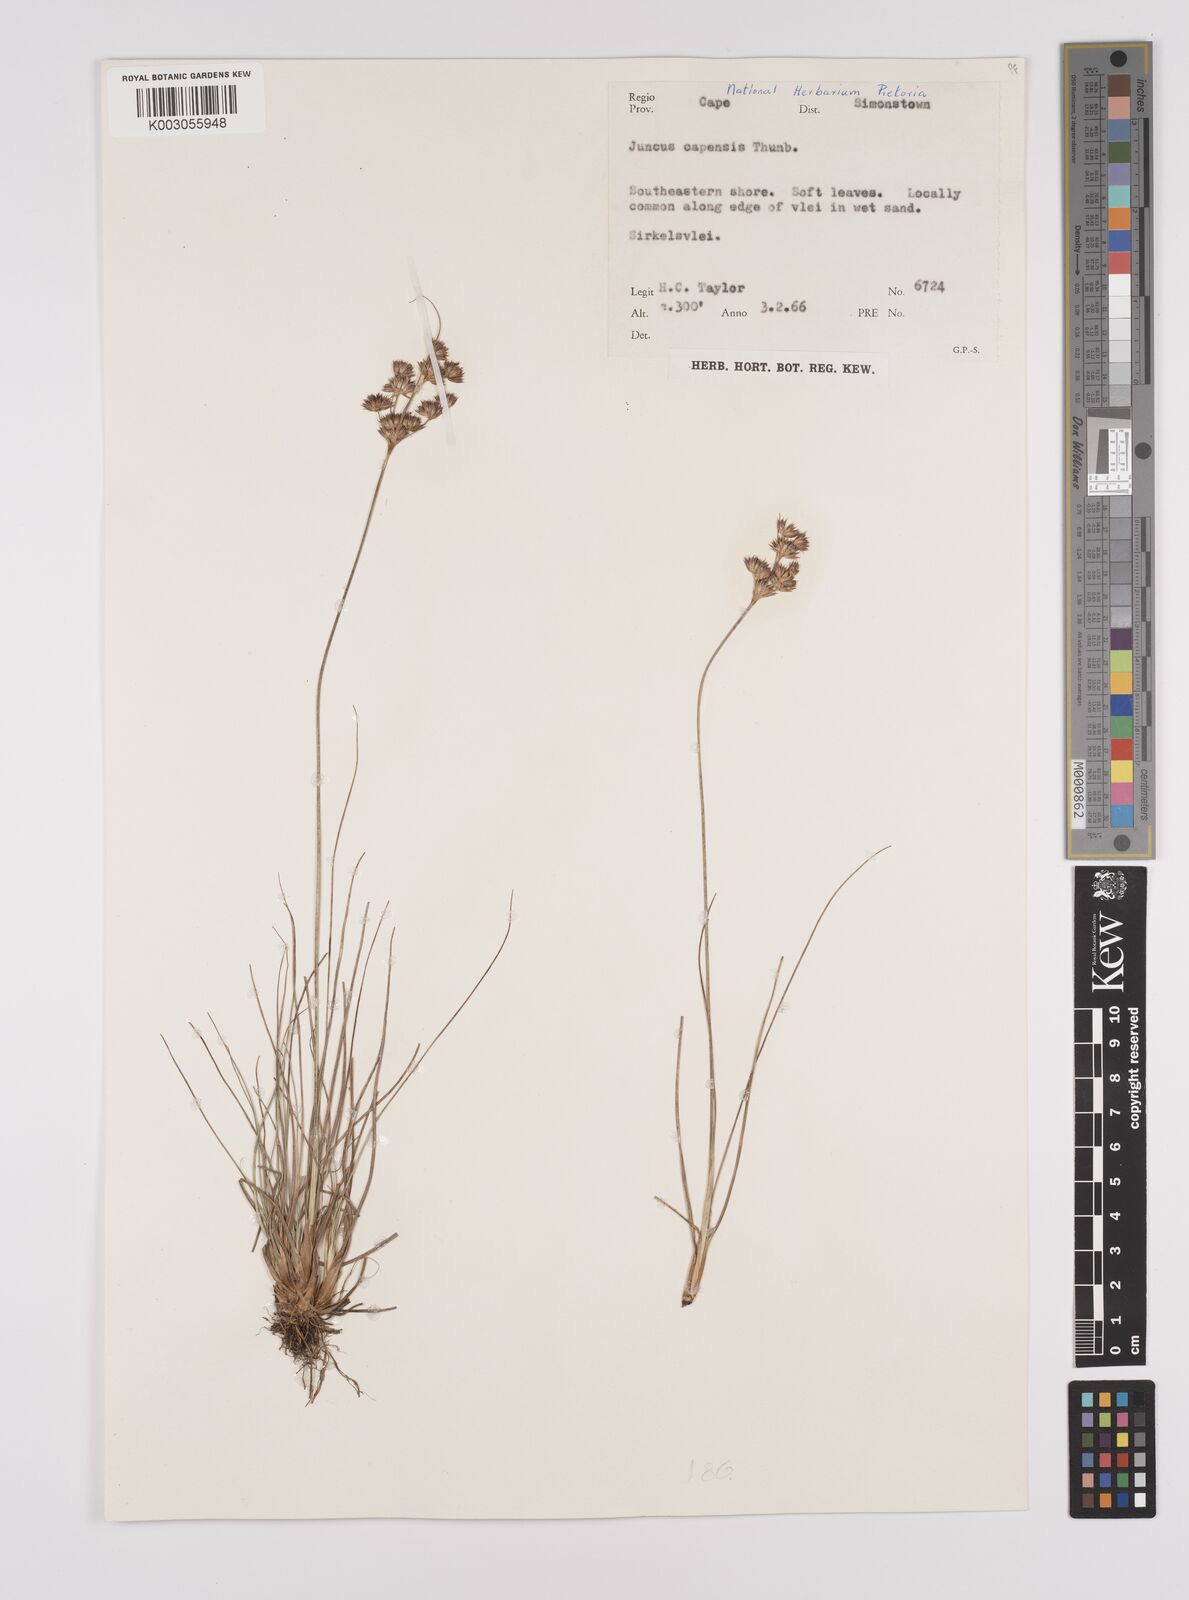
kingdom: Plantae
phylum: Tracheophyta
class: Liliopsida
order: Poales
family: Juncaceae
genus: Juncus
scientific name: Juncus capensis
